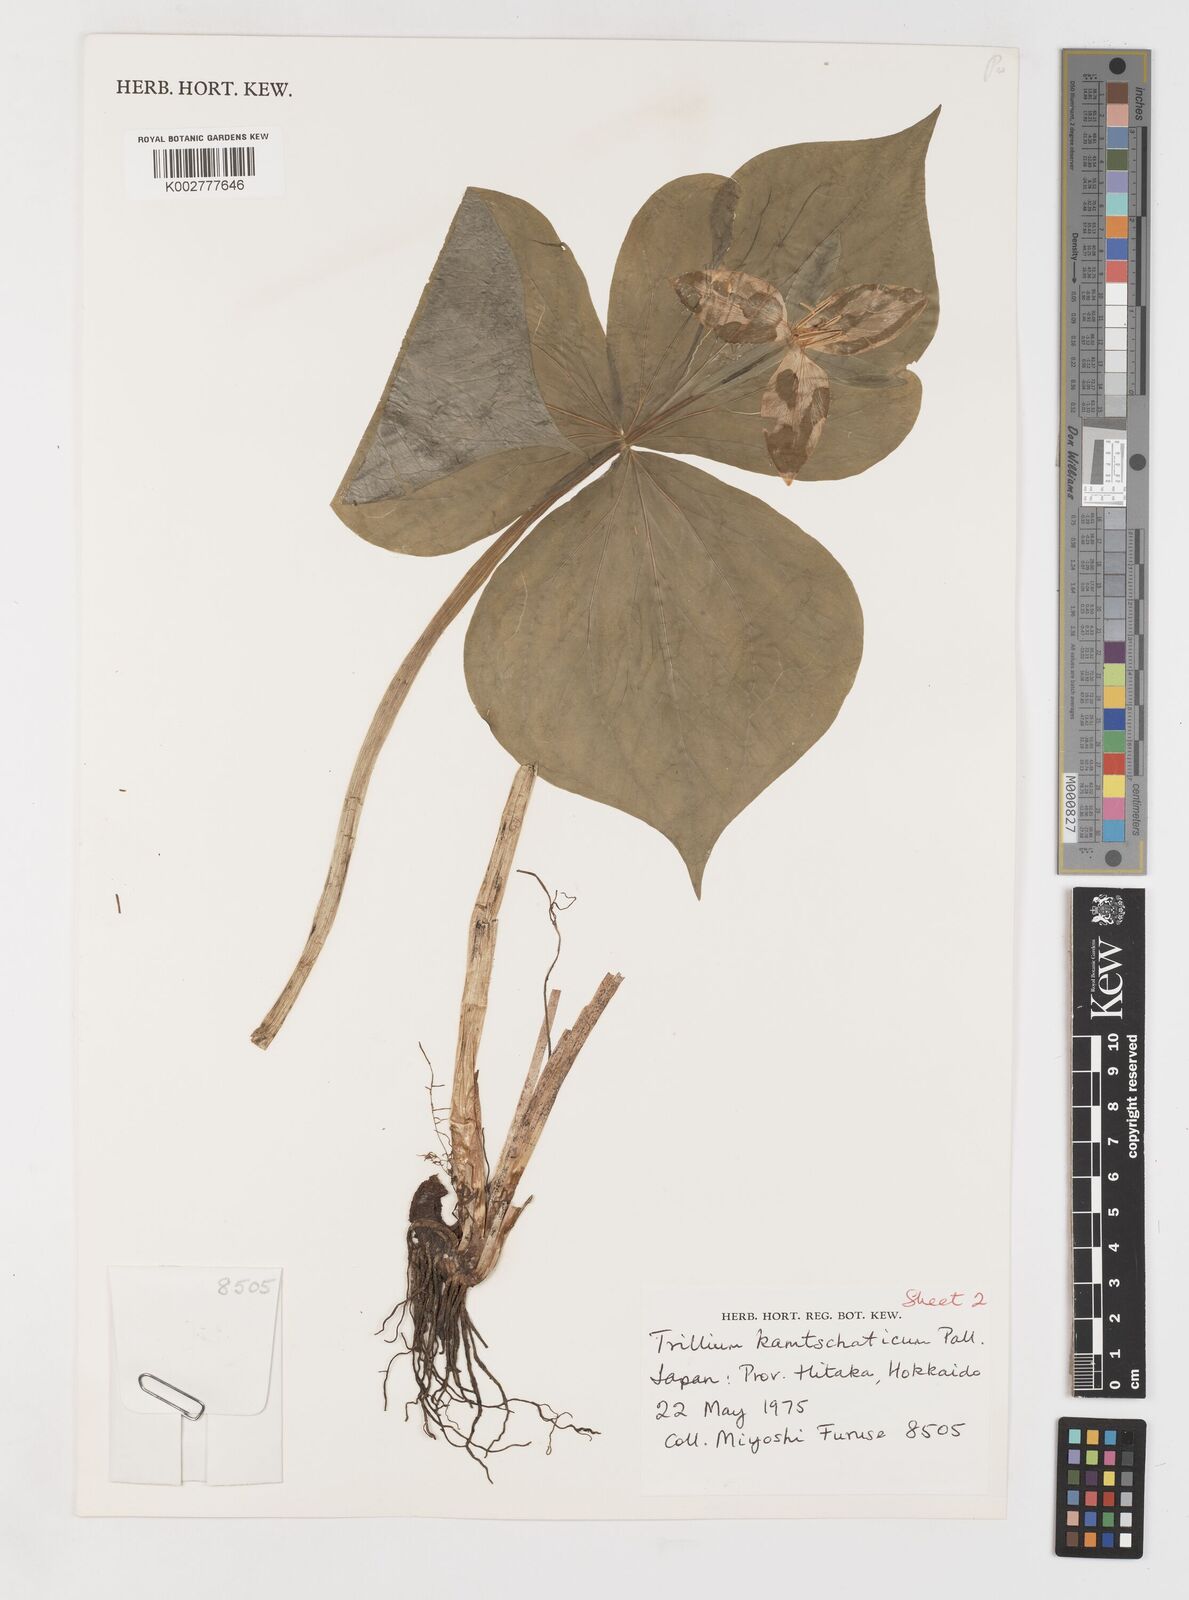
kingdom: Plantae
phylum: Tracheophyta
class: Liliopsida
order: Liliales
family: Melanthiaceae
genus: Trillium
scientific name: Trillium camschatcense
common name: Kamchatka trillium
